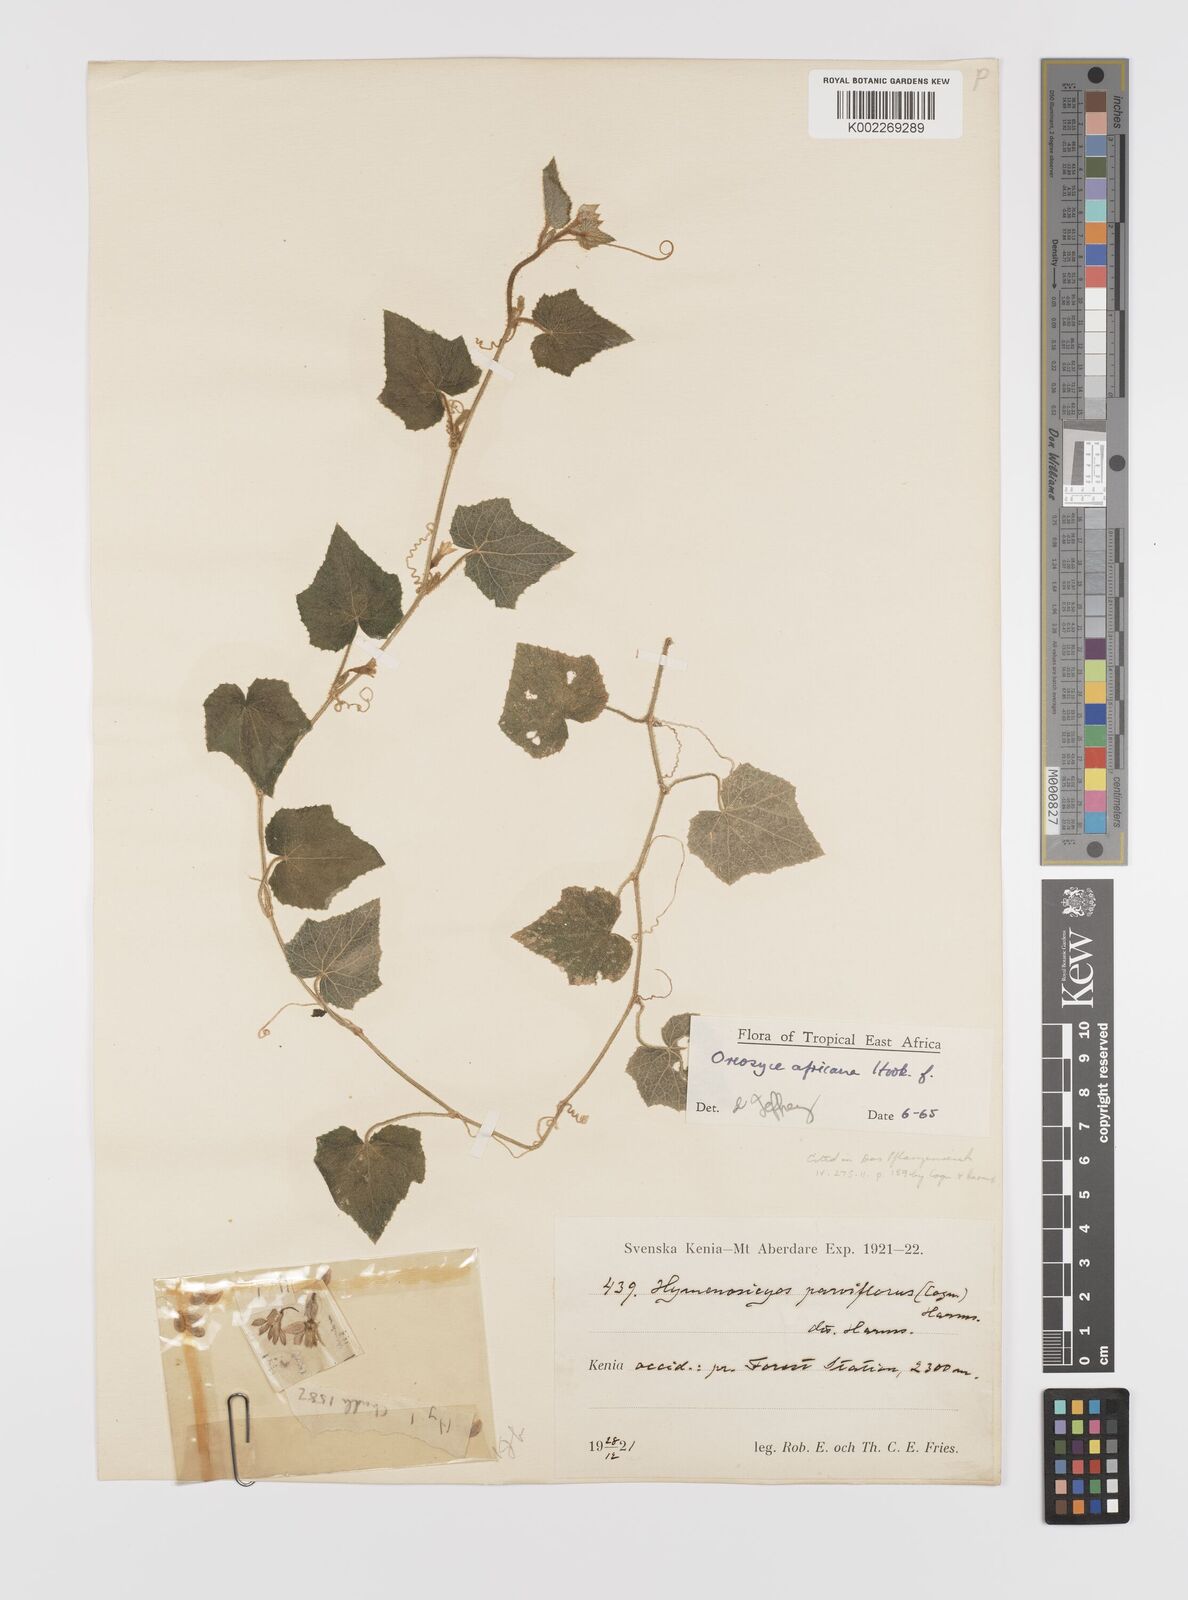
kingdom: Plantae
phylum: Tracheophyta
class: Magnoliopsida
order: Cucurbitales
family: Cucurbitaceae
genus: Cucumis
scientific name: Cucumis oreosyce
